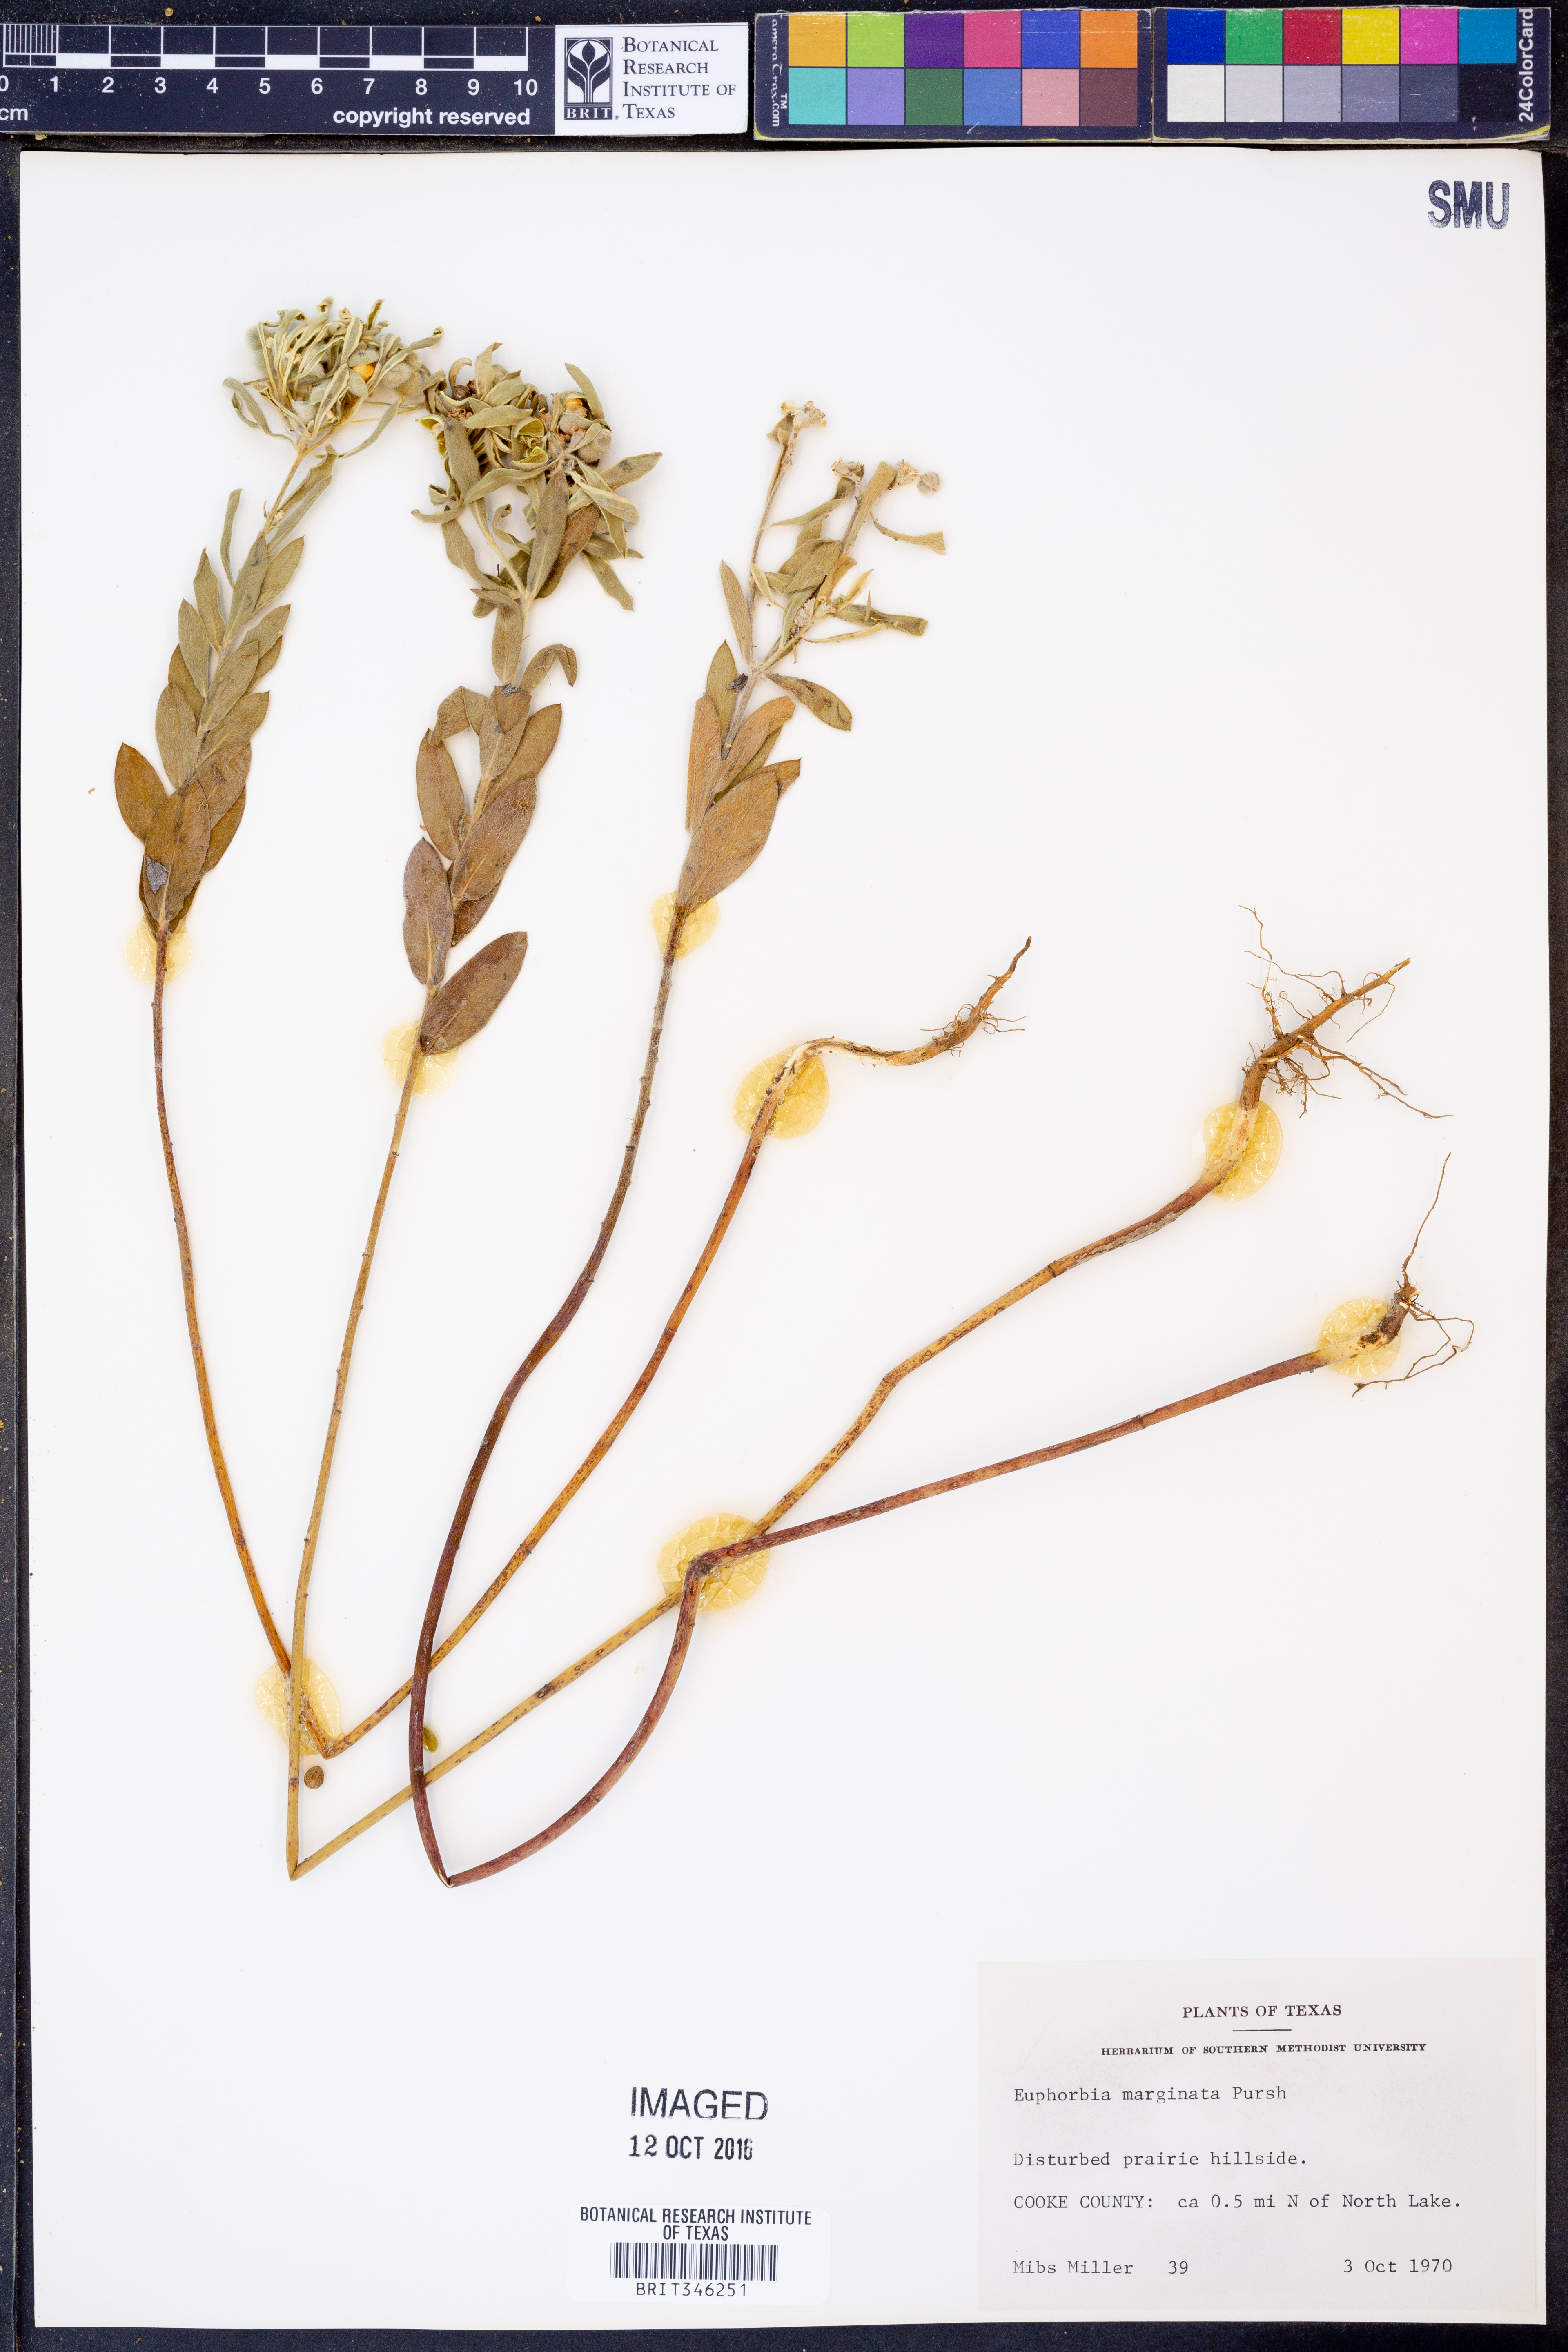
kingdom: Plantae
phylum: Tracheophyta
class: Magnoliopsida
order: Malpighiales
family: Euphorbiaceae
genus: Euphorbia
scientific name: Euphorbia marginata
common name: Ghostweed
